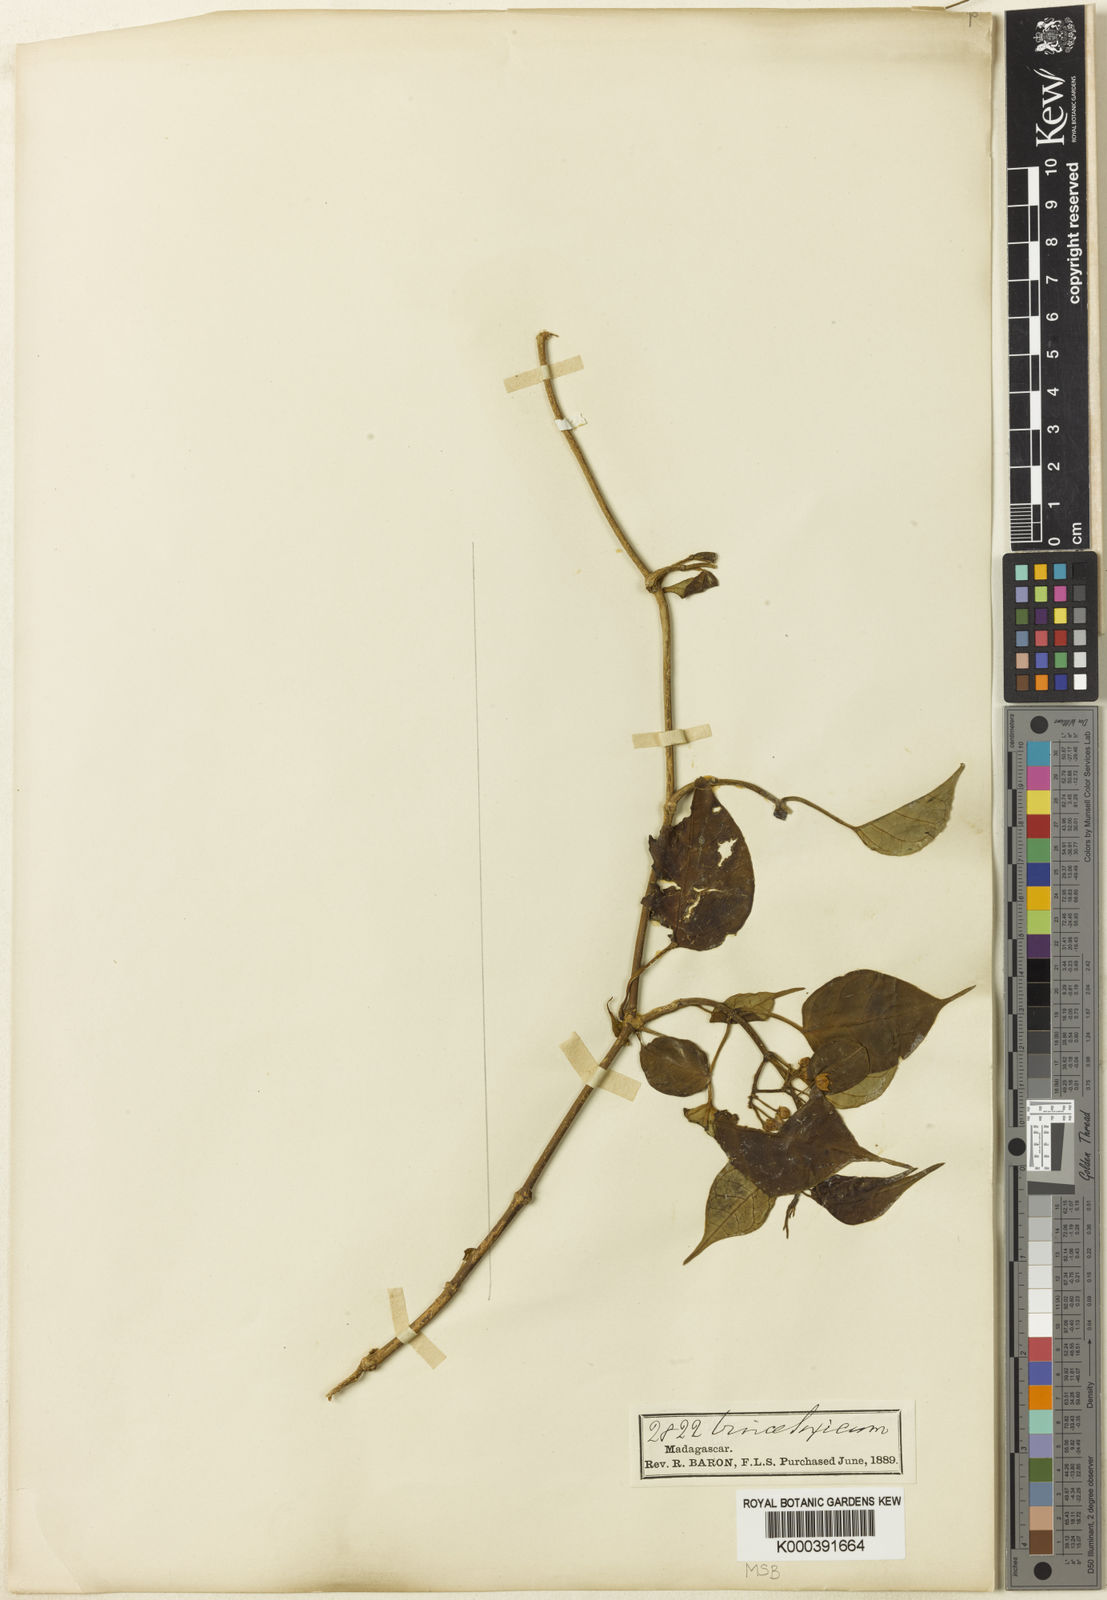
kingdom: Plantae
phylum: Tracheophyta
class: Magnoliopsida
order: Gentianales
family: Apocynaceae
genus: Cynanchum
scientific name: Cynanchum baronii
